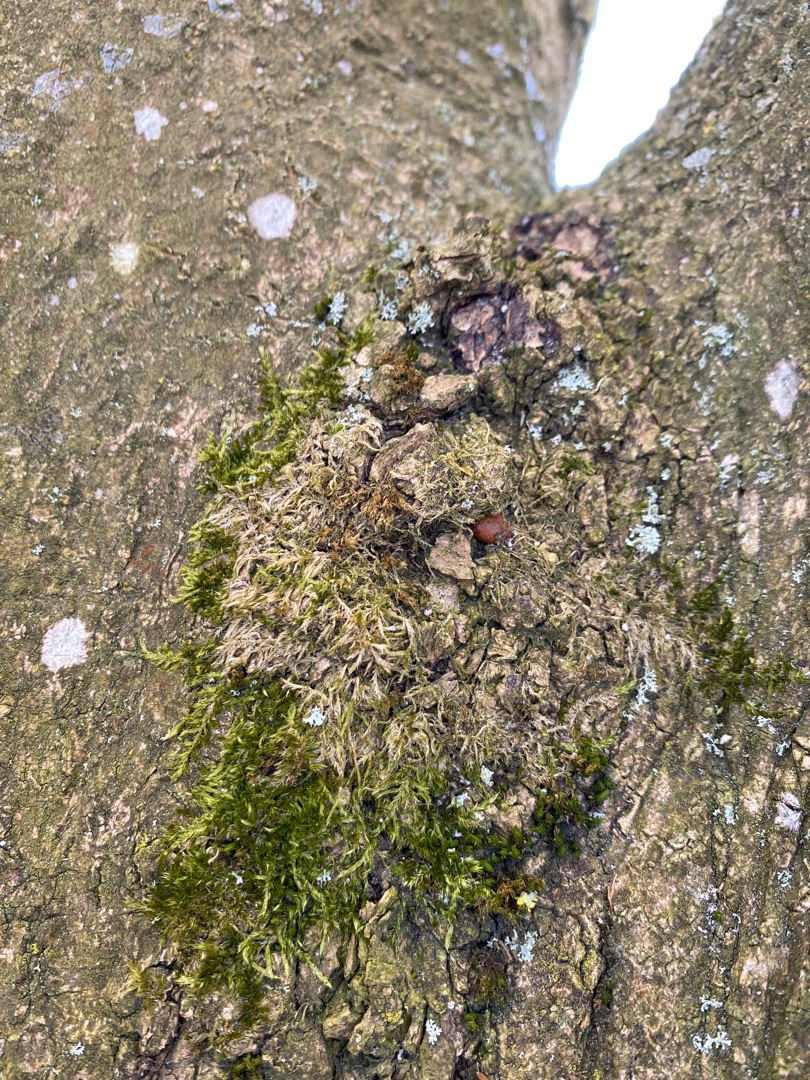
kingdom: Plantae
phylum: Bryophyta
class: Bryopsida
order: Hypnales
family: Hypnaceae
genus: Hypnum
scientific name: Hypnum
